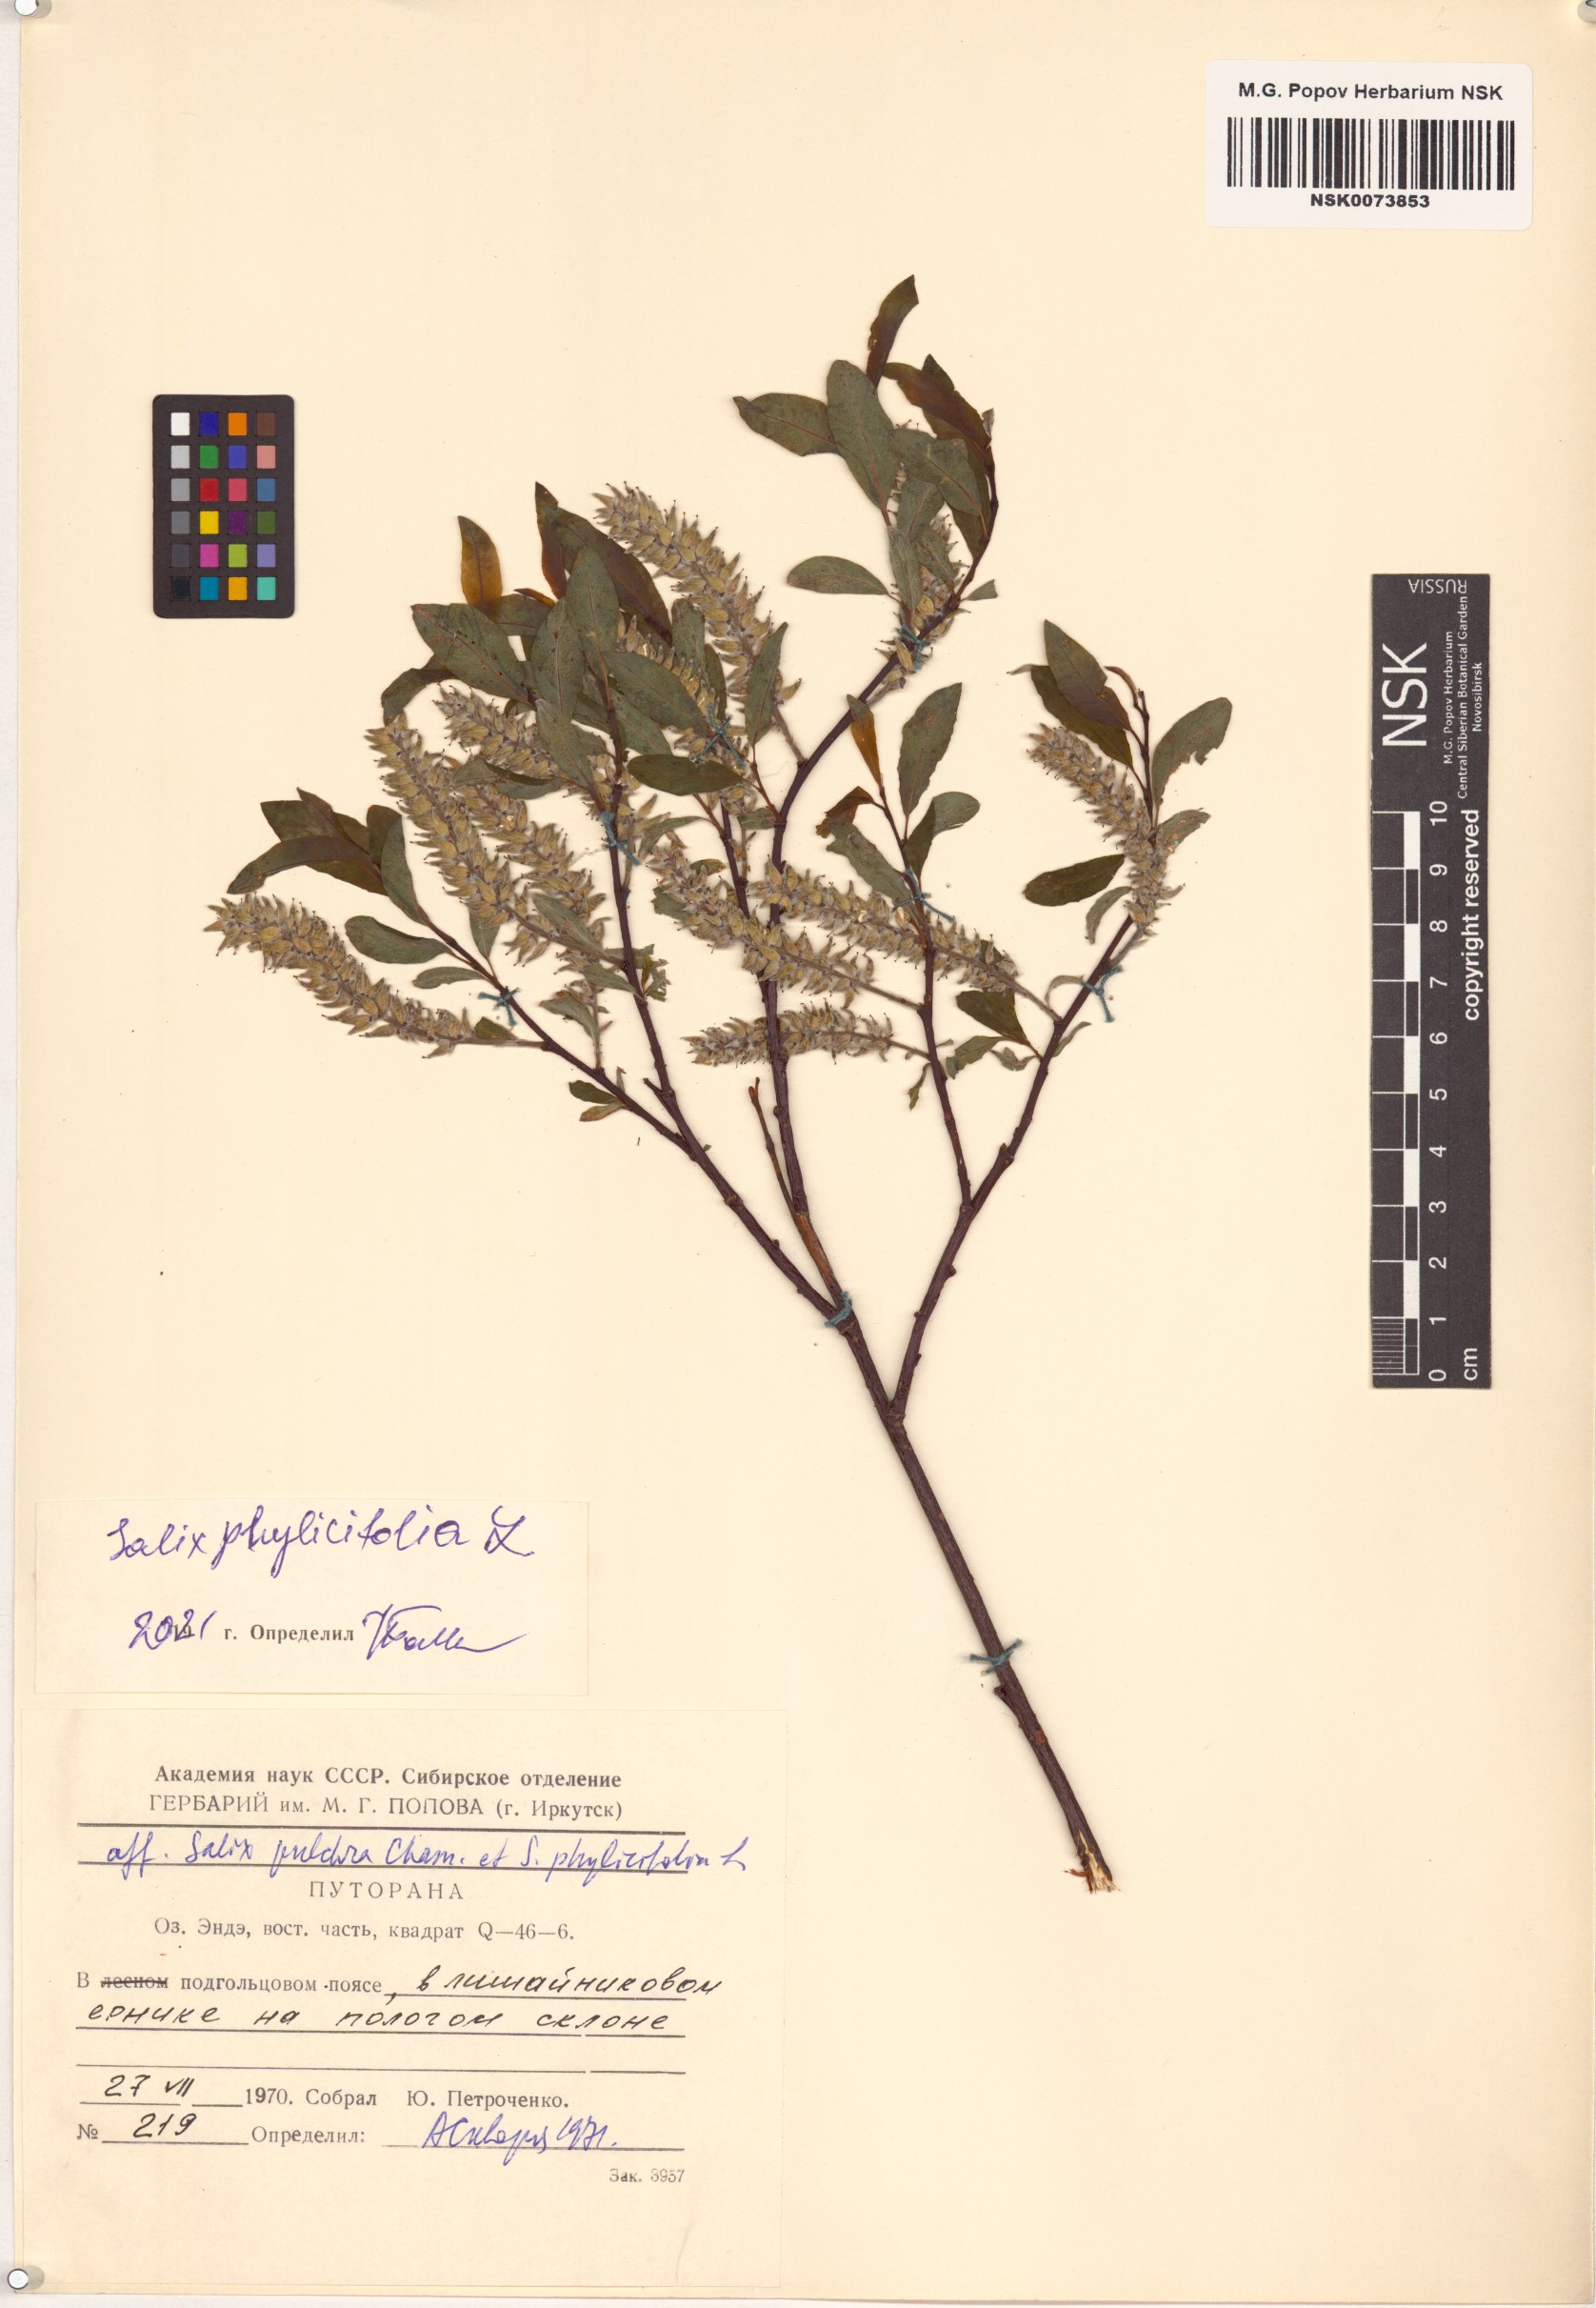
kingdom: Plantae
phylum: Tracheophyta
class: Magnoliopsida
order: Malpighiales
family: Salicaceae
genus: Salix
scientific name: Salix phylicifolia
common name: Tea-leaved willow
